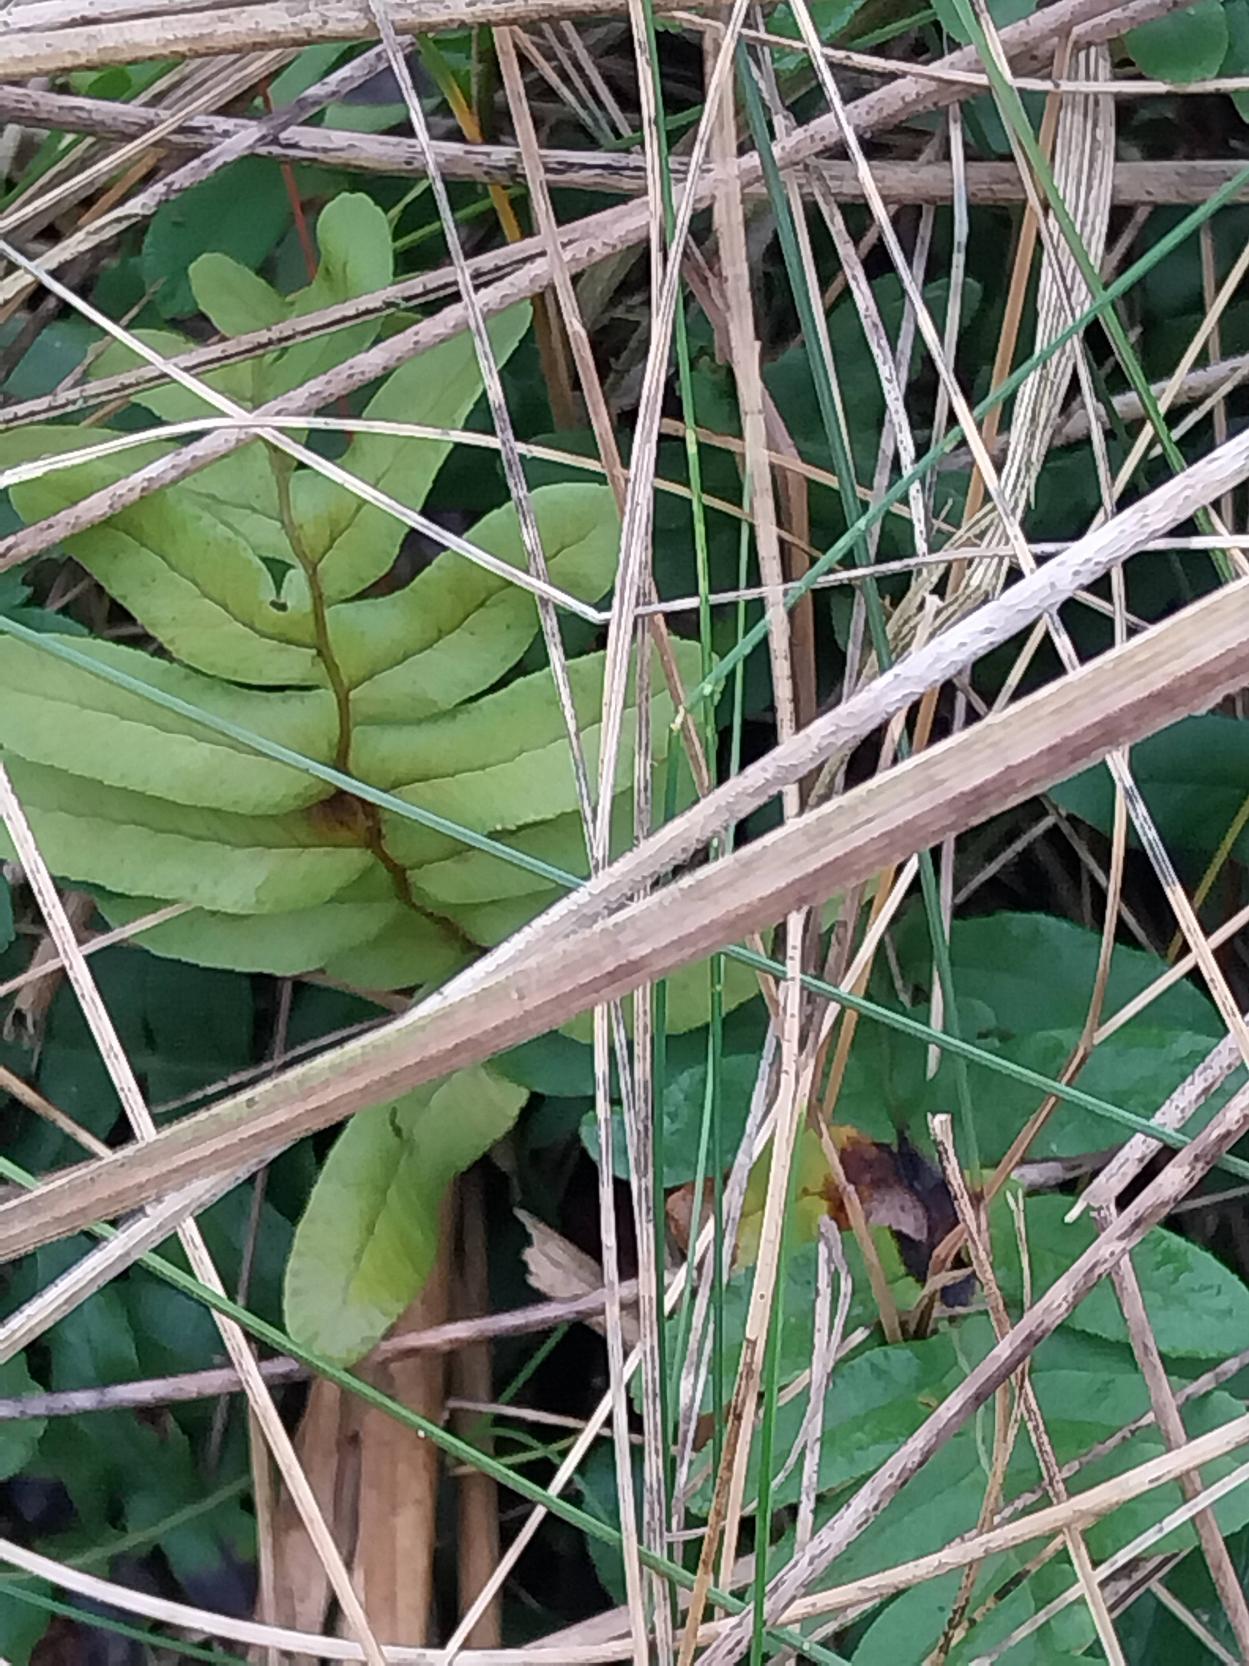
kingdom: Plantae
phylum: Tracheophyta
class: Polypodiopsida
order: Polypodiales
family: Polypodiaceae
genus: Polypodium
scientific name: Polypodium vulgare
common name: Almindelig engelsød
